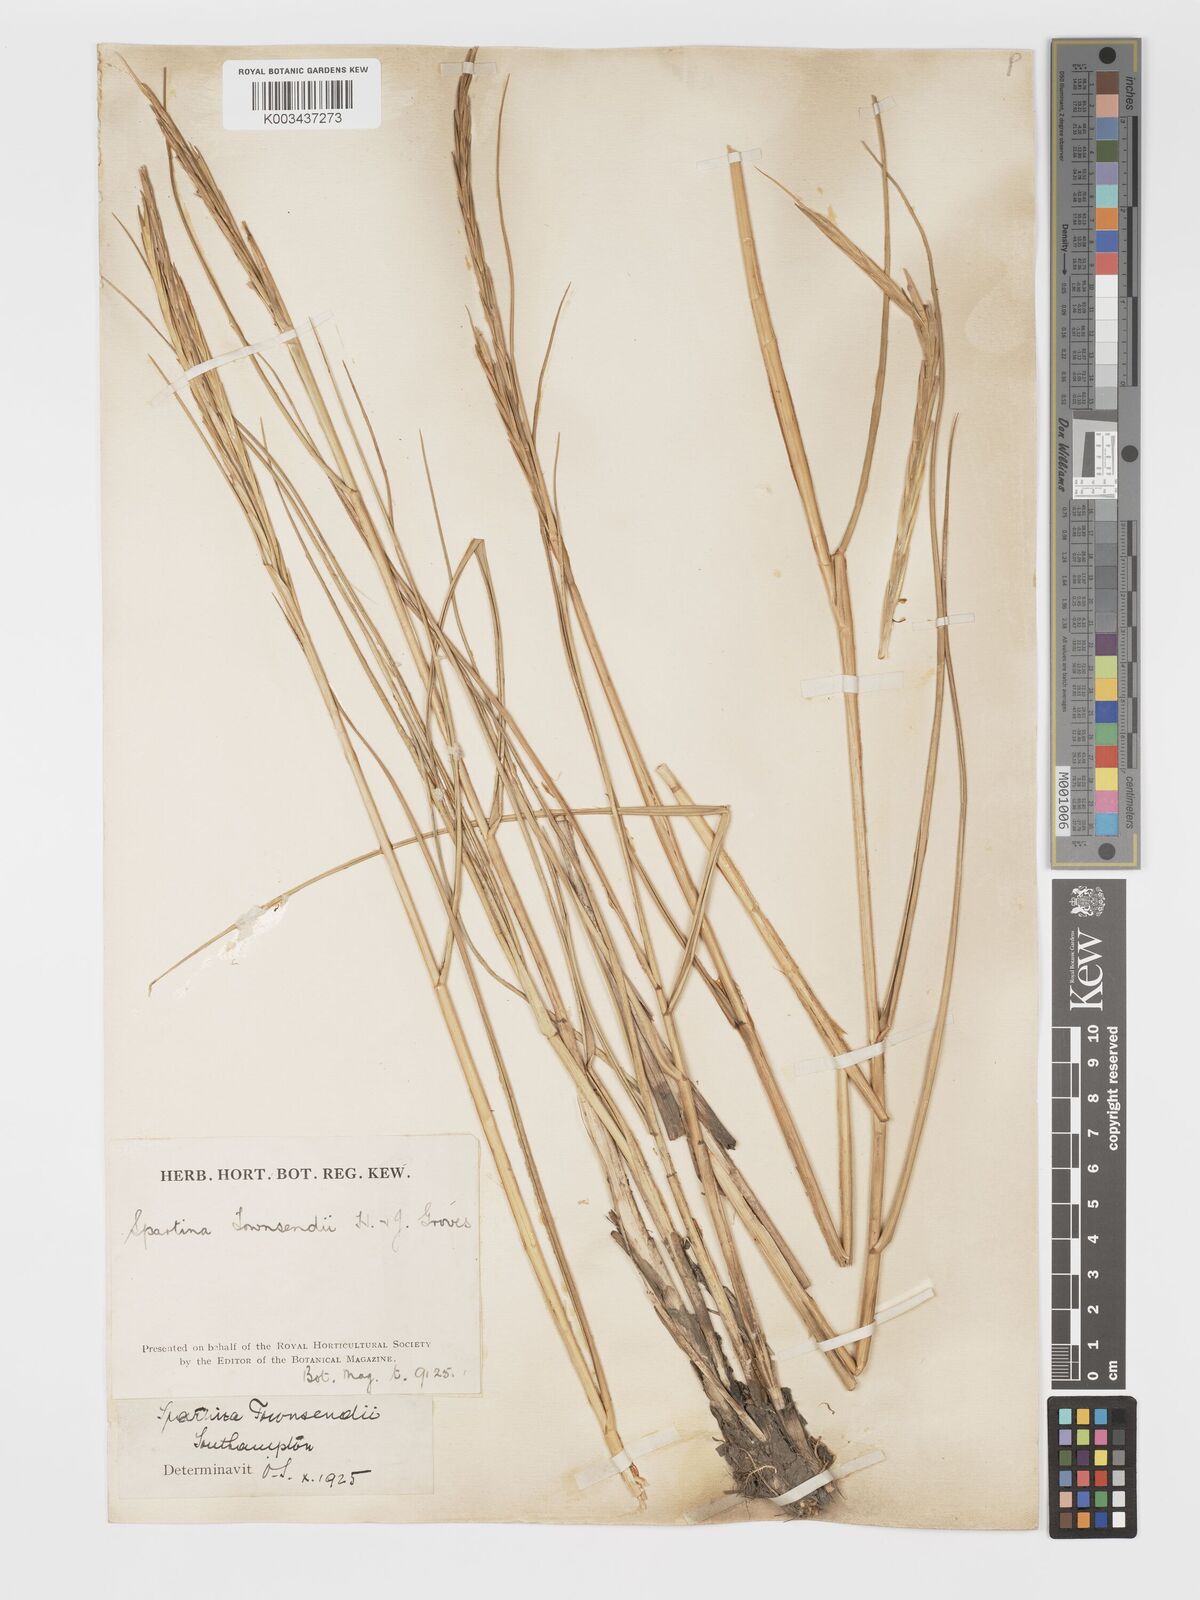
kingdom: Plantae
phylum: Tracheophyta
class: Liliopsida
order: Poales
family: Poaceae
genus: Sporobolus
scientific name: Sporobolus townsendii
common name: Townsend's cordgrass
